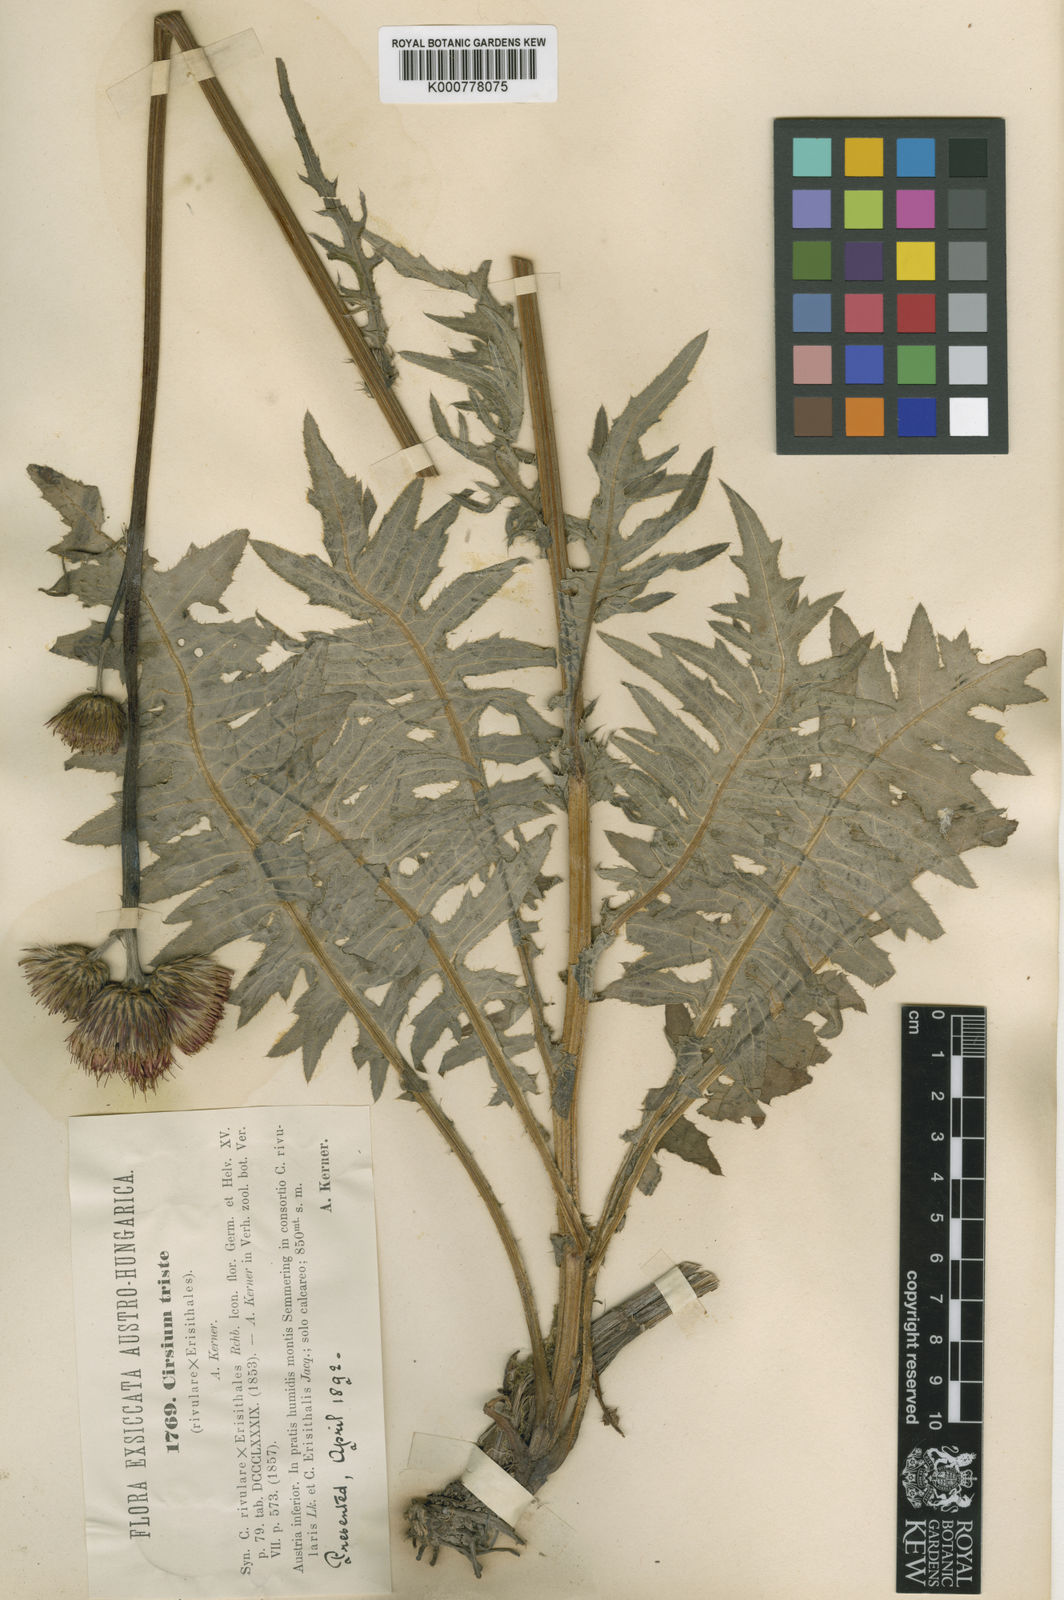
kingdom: Plantae
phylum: Tracheophyta
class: Magnoliopsida
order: Asterales
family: Asteraceae
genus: Cirsium
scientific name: Cirsium erisithales
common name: Yellow thistle
